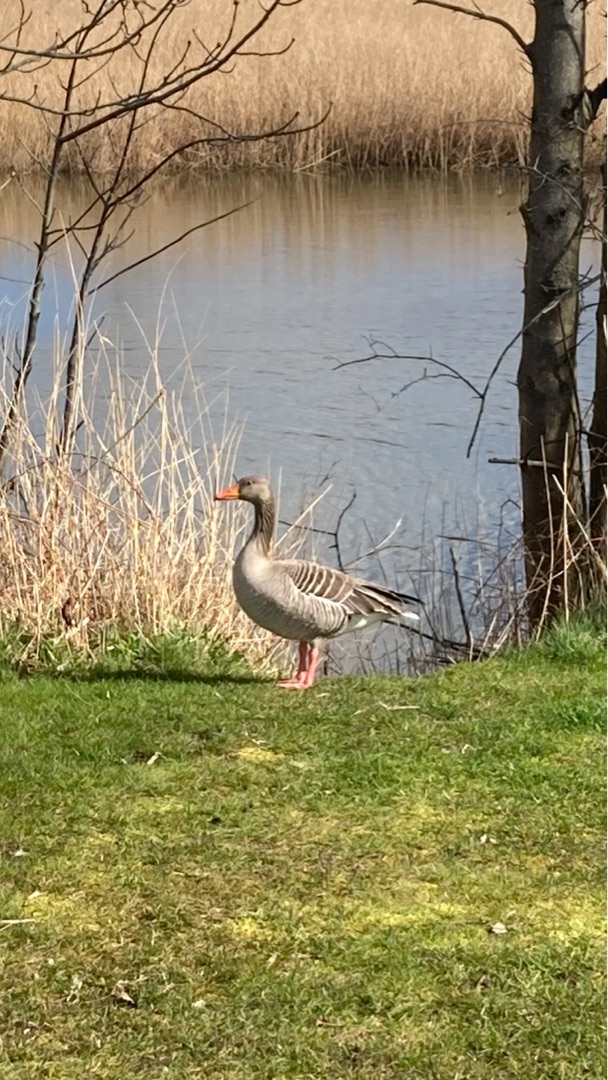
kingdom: Animalia
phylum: Chordata
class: Aves
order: Anseriformes
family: Anatidae
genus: Anser
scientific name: Anser anser
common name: Grågås
